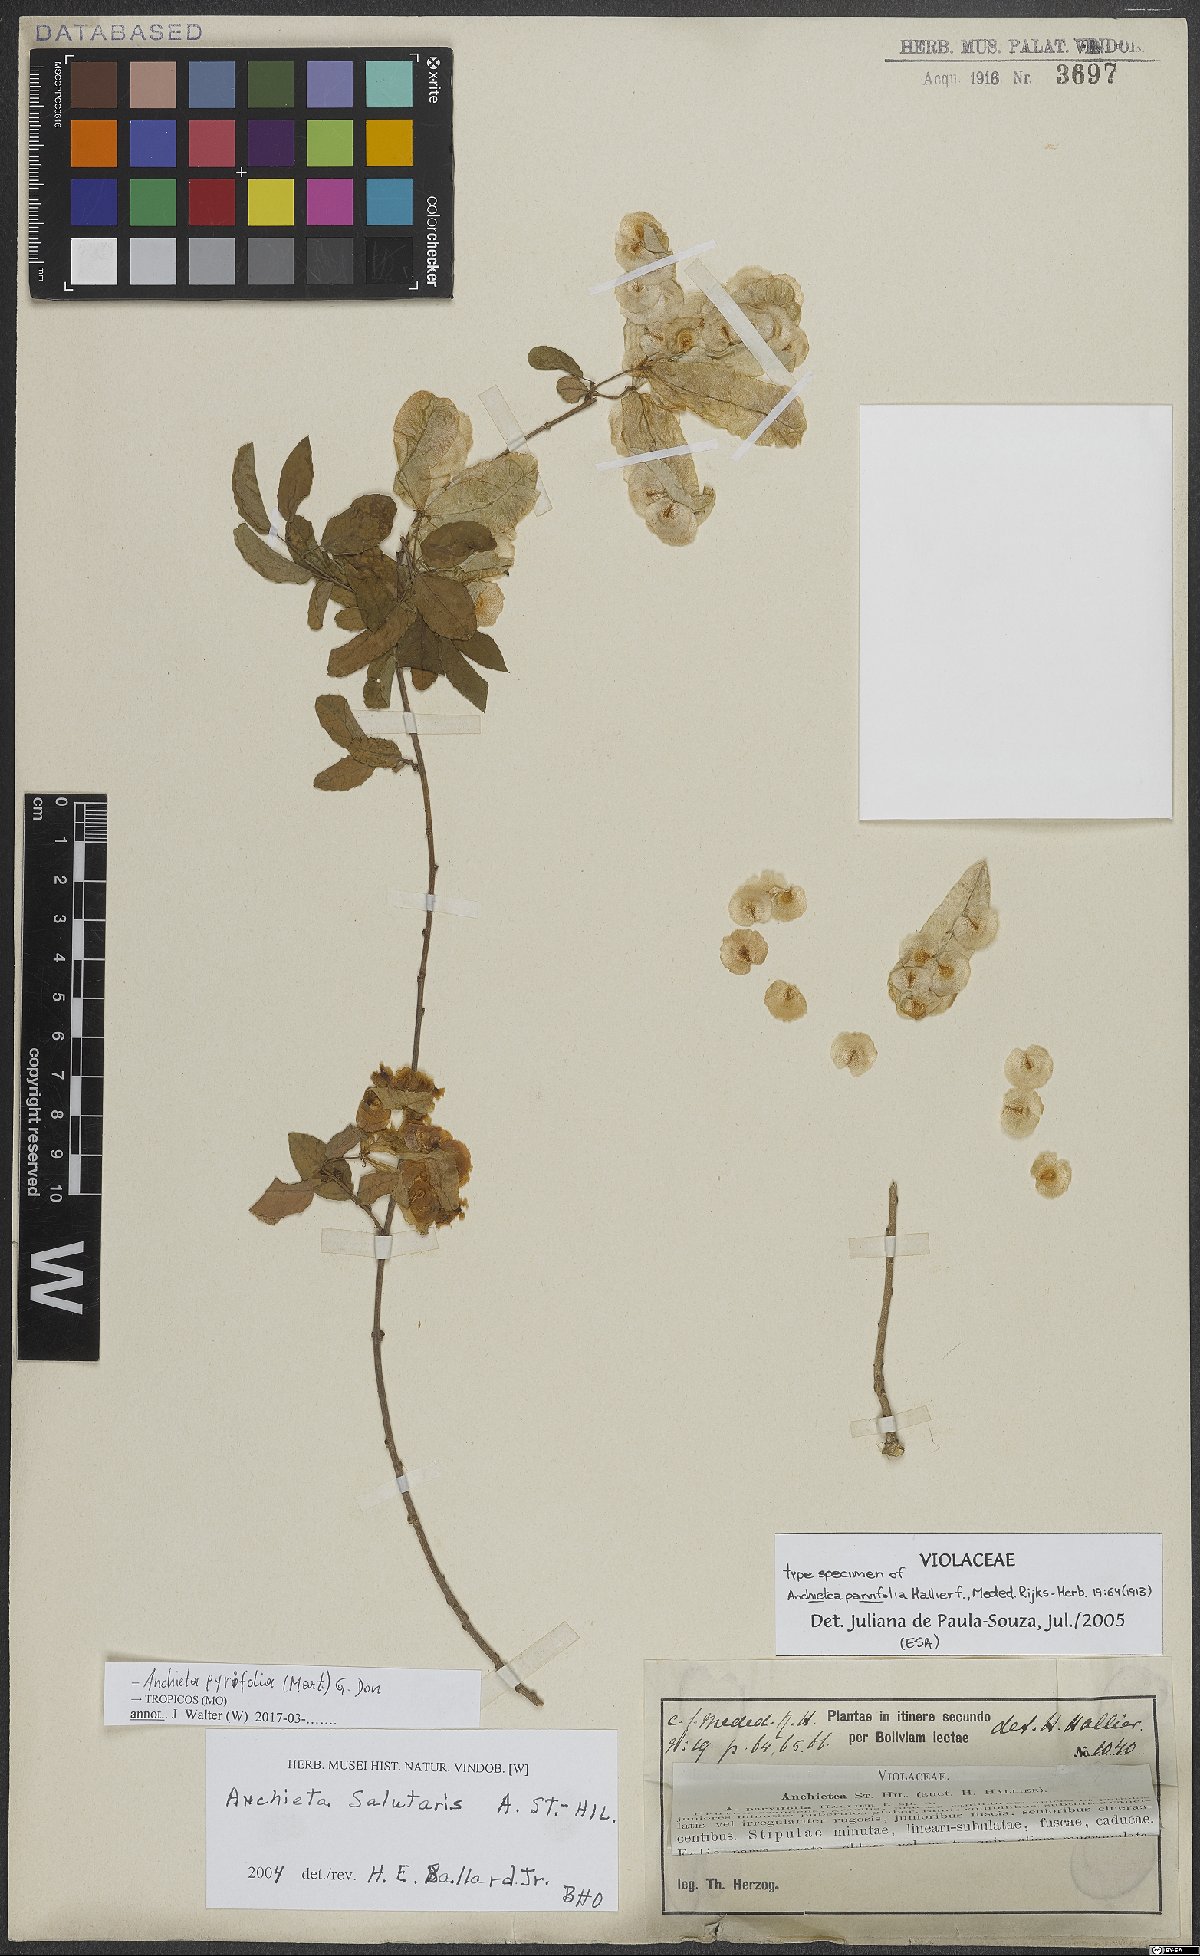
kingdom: Plantae
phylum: Tracheophyta
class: Magnoliopsida
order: Malpighiales
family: Violaceae
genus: Anchietea
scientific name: Anchietea pyrifolia
